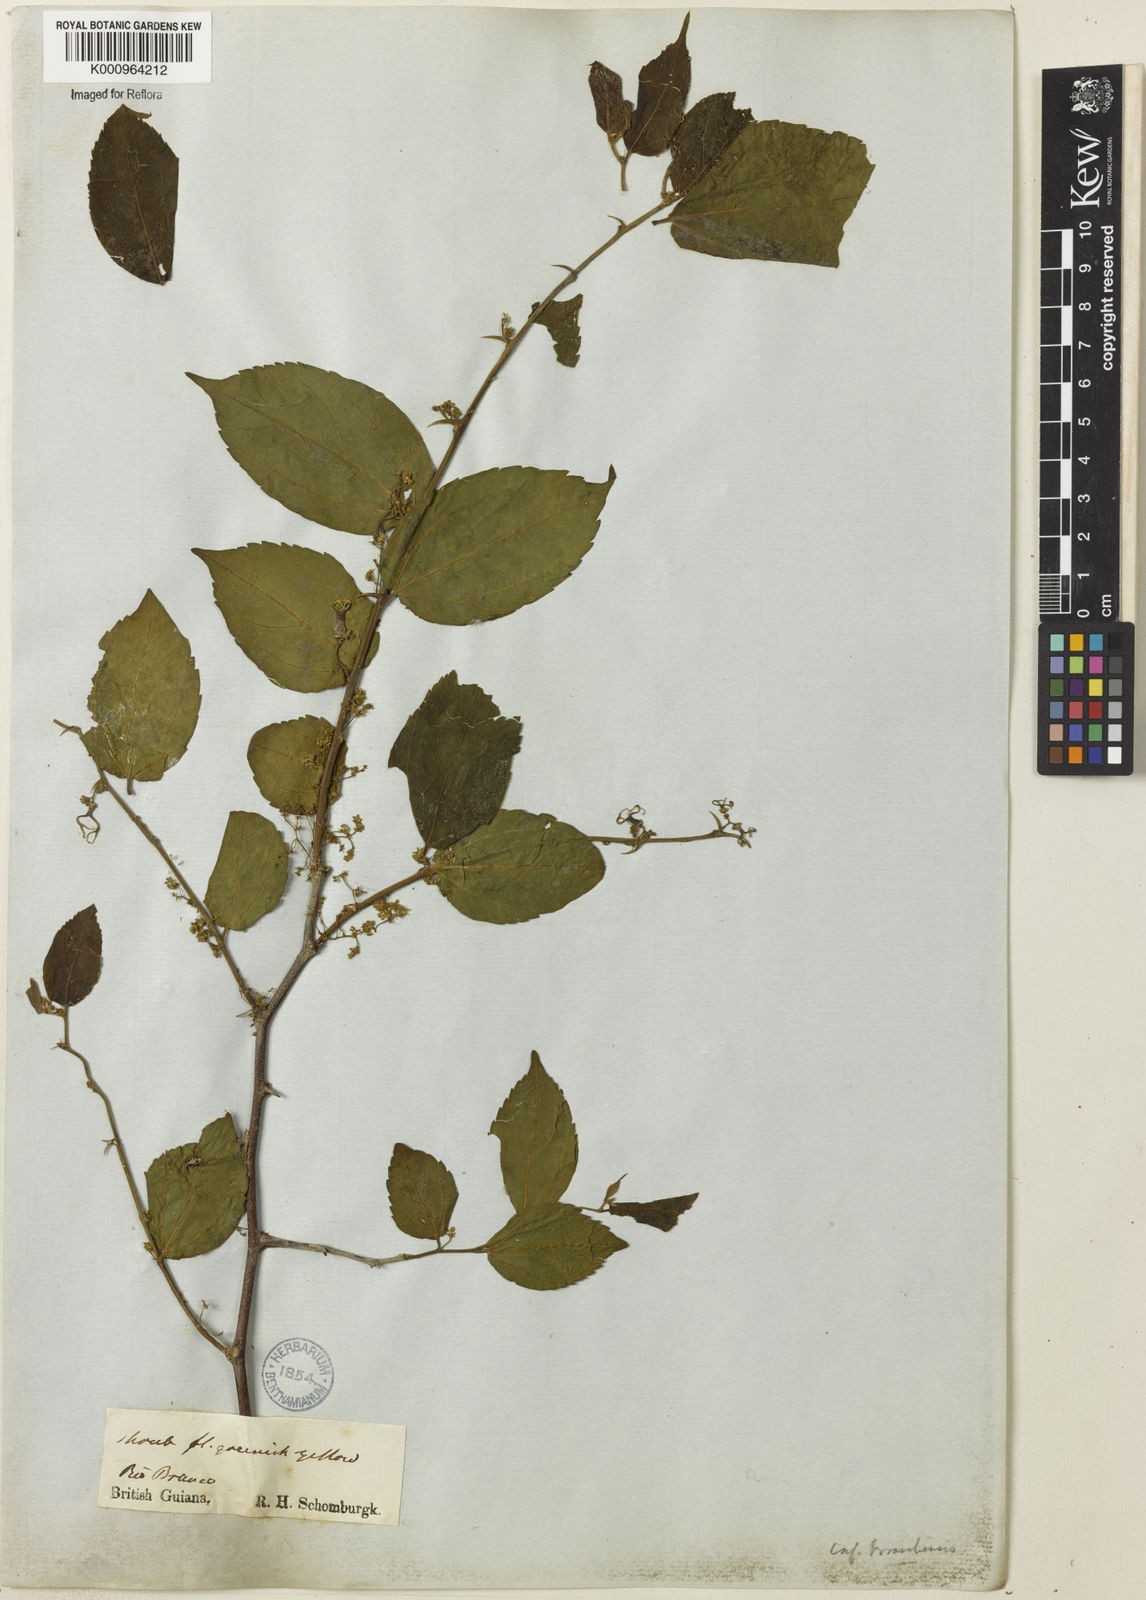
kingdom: Plantae
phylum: Tracheophyta
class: Magnoliopsida
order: Rosales
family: Cannabaceae
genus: Celtis
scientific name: Celtis brasiliensis
